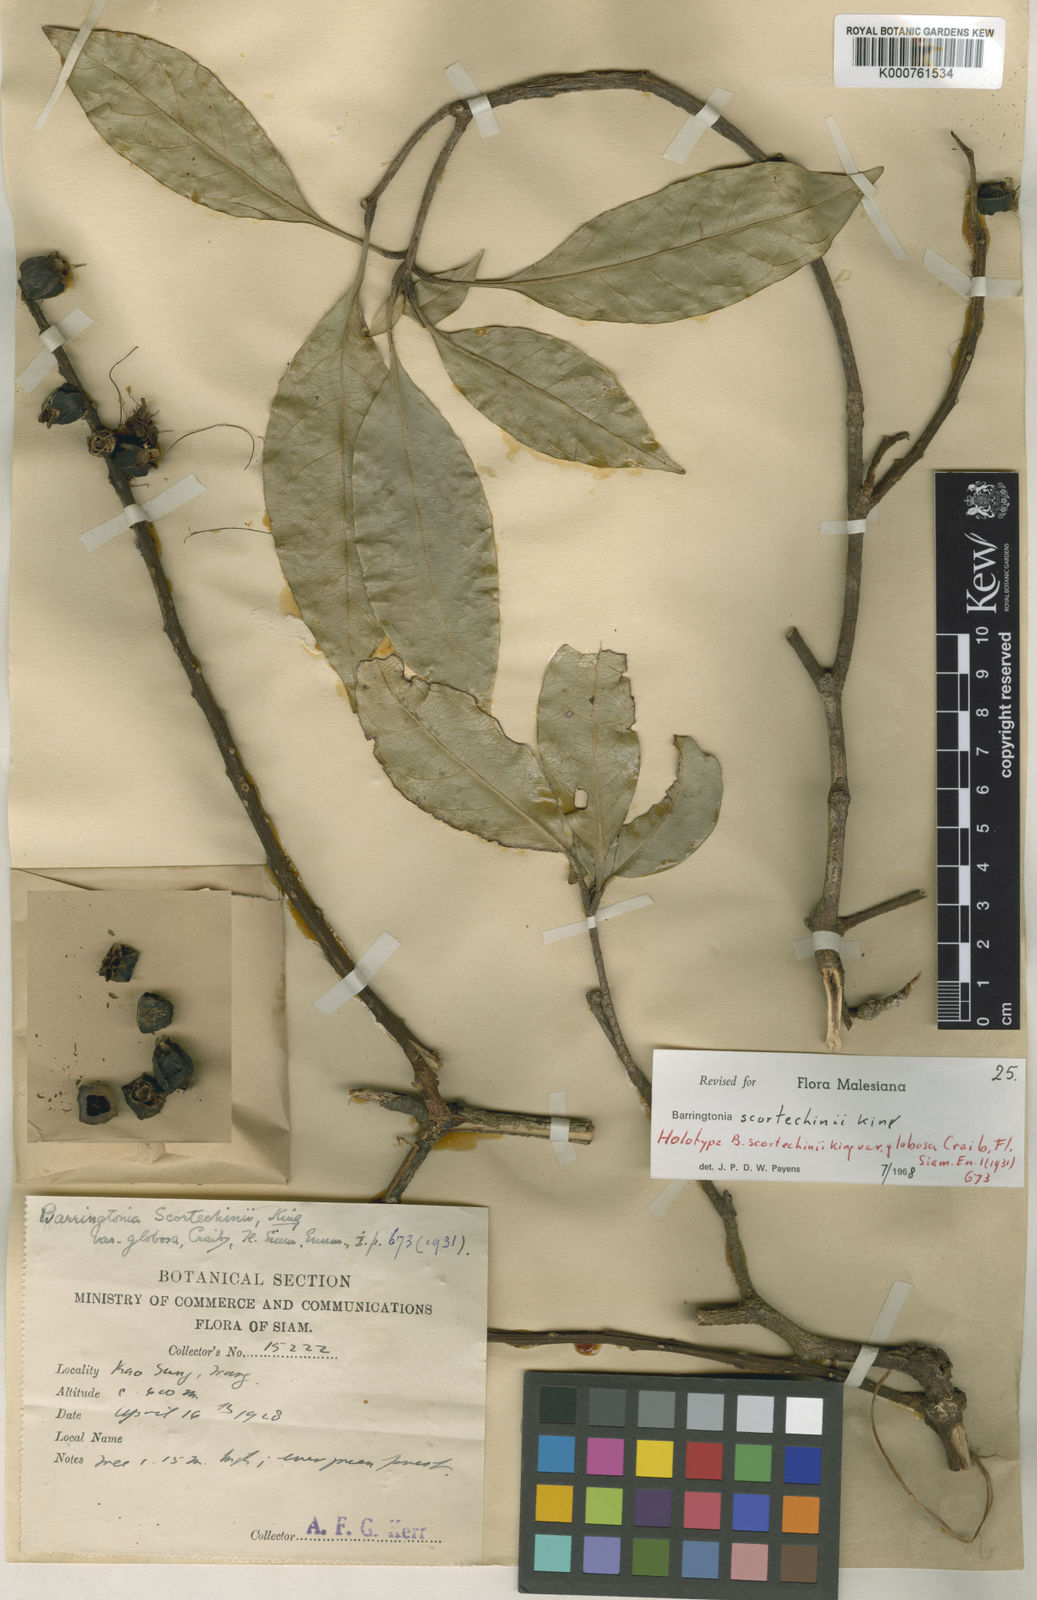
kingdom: Plantae
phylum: Tracheophyta
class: Magnoliopsida
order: Ericales
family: Lecythidaceae
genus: Barringtonia
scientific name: Barringtonia scortechinii
